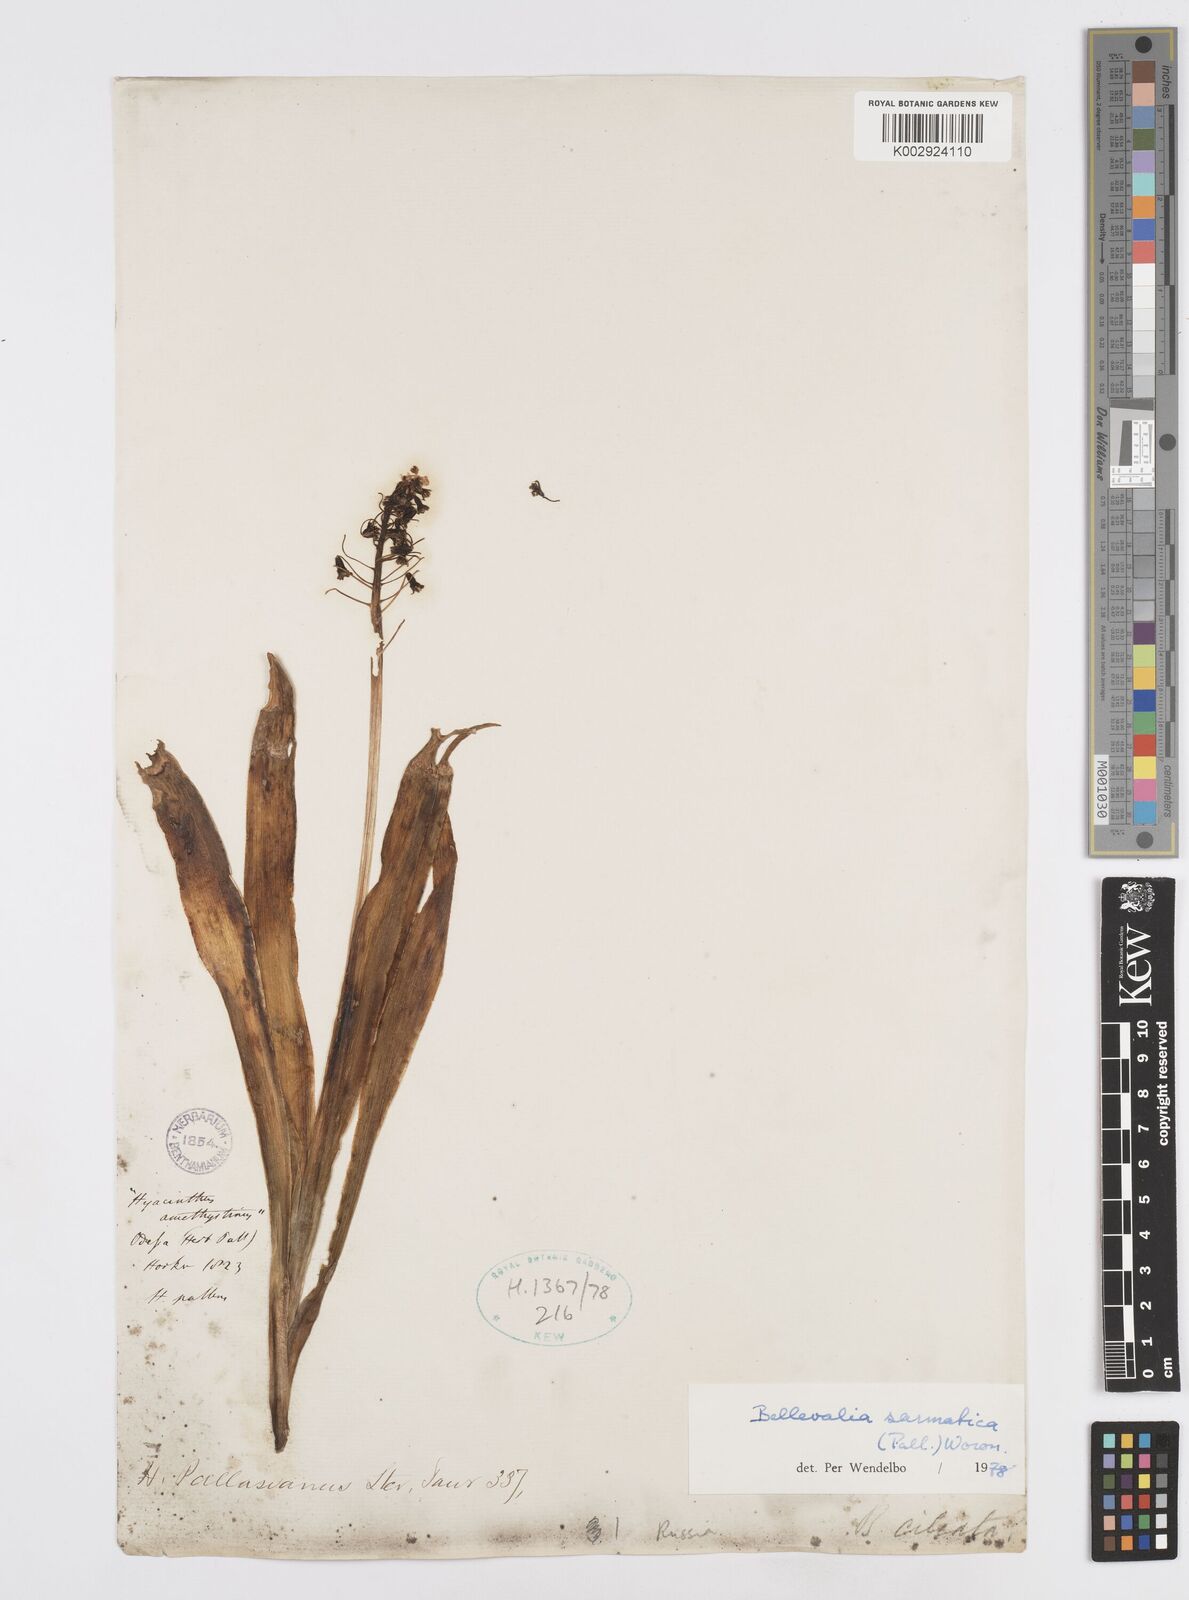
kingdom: Plantae
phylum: Tracheophyta
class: Liliopsida
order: Asparagales
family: Asparagaceae
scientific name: Asparagaceae
